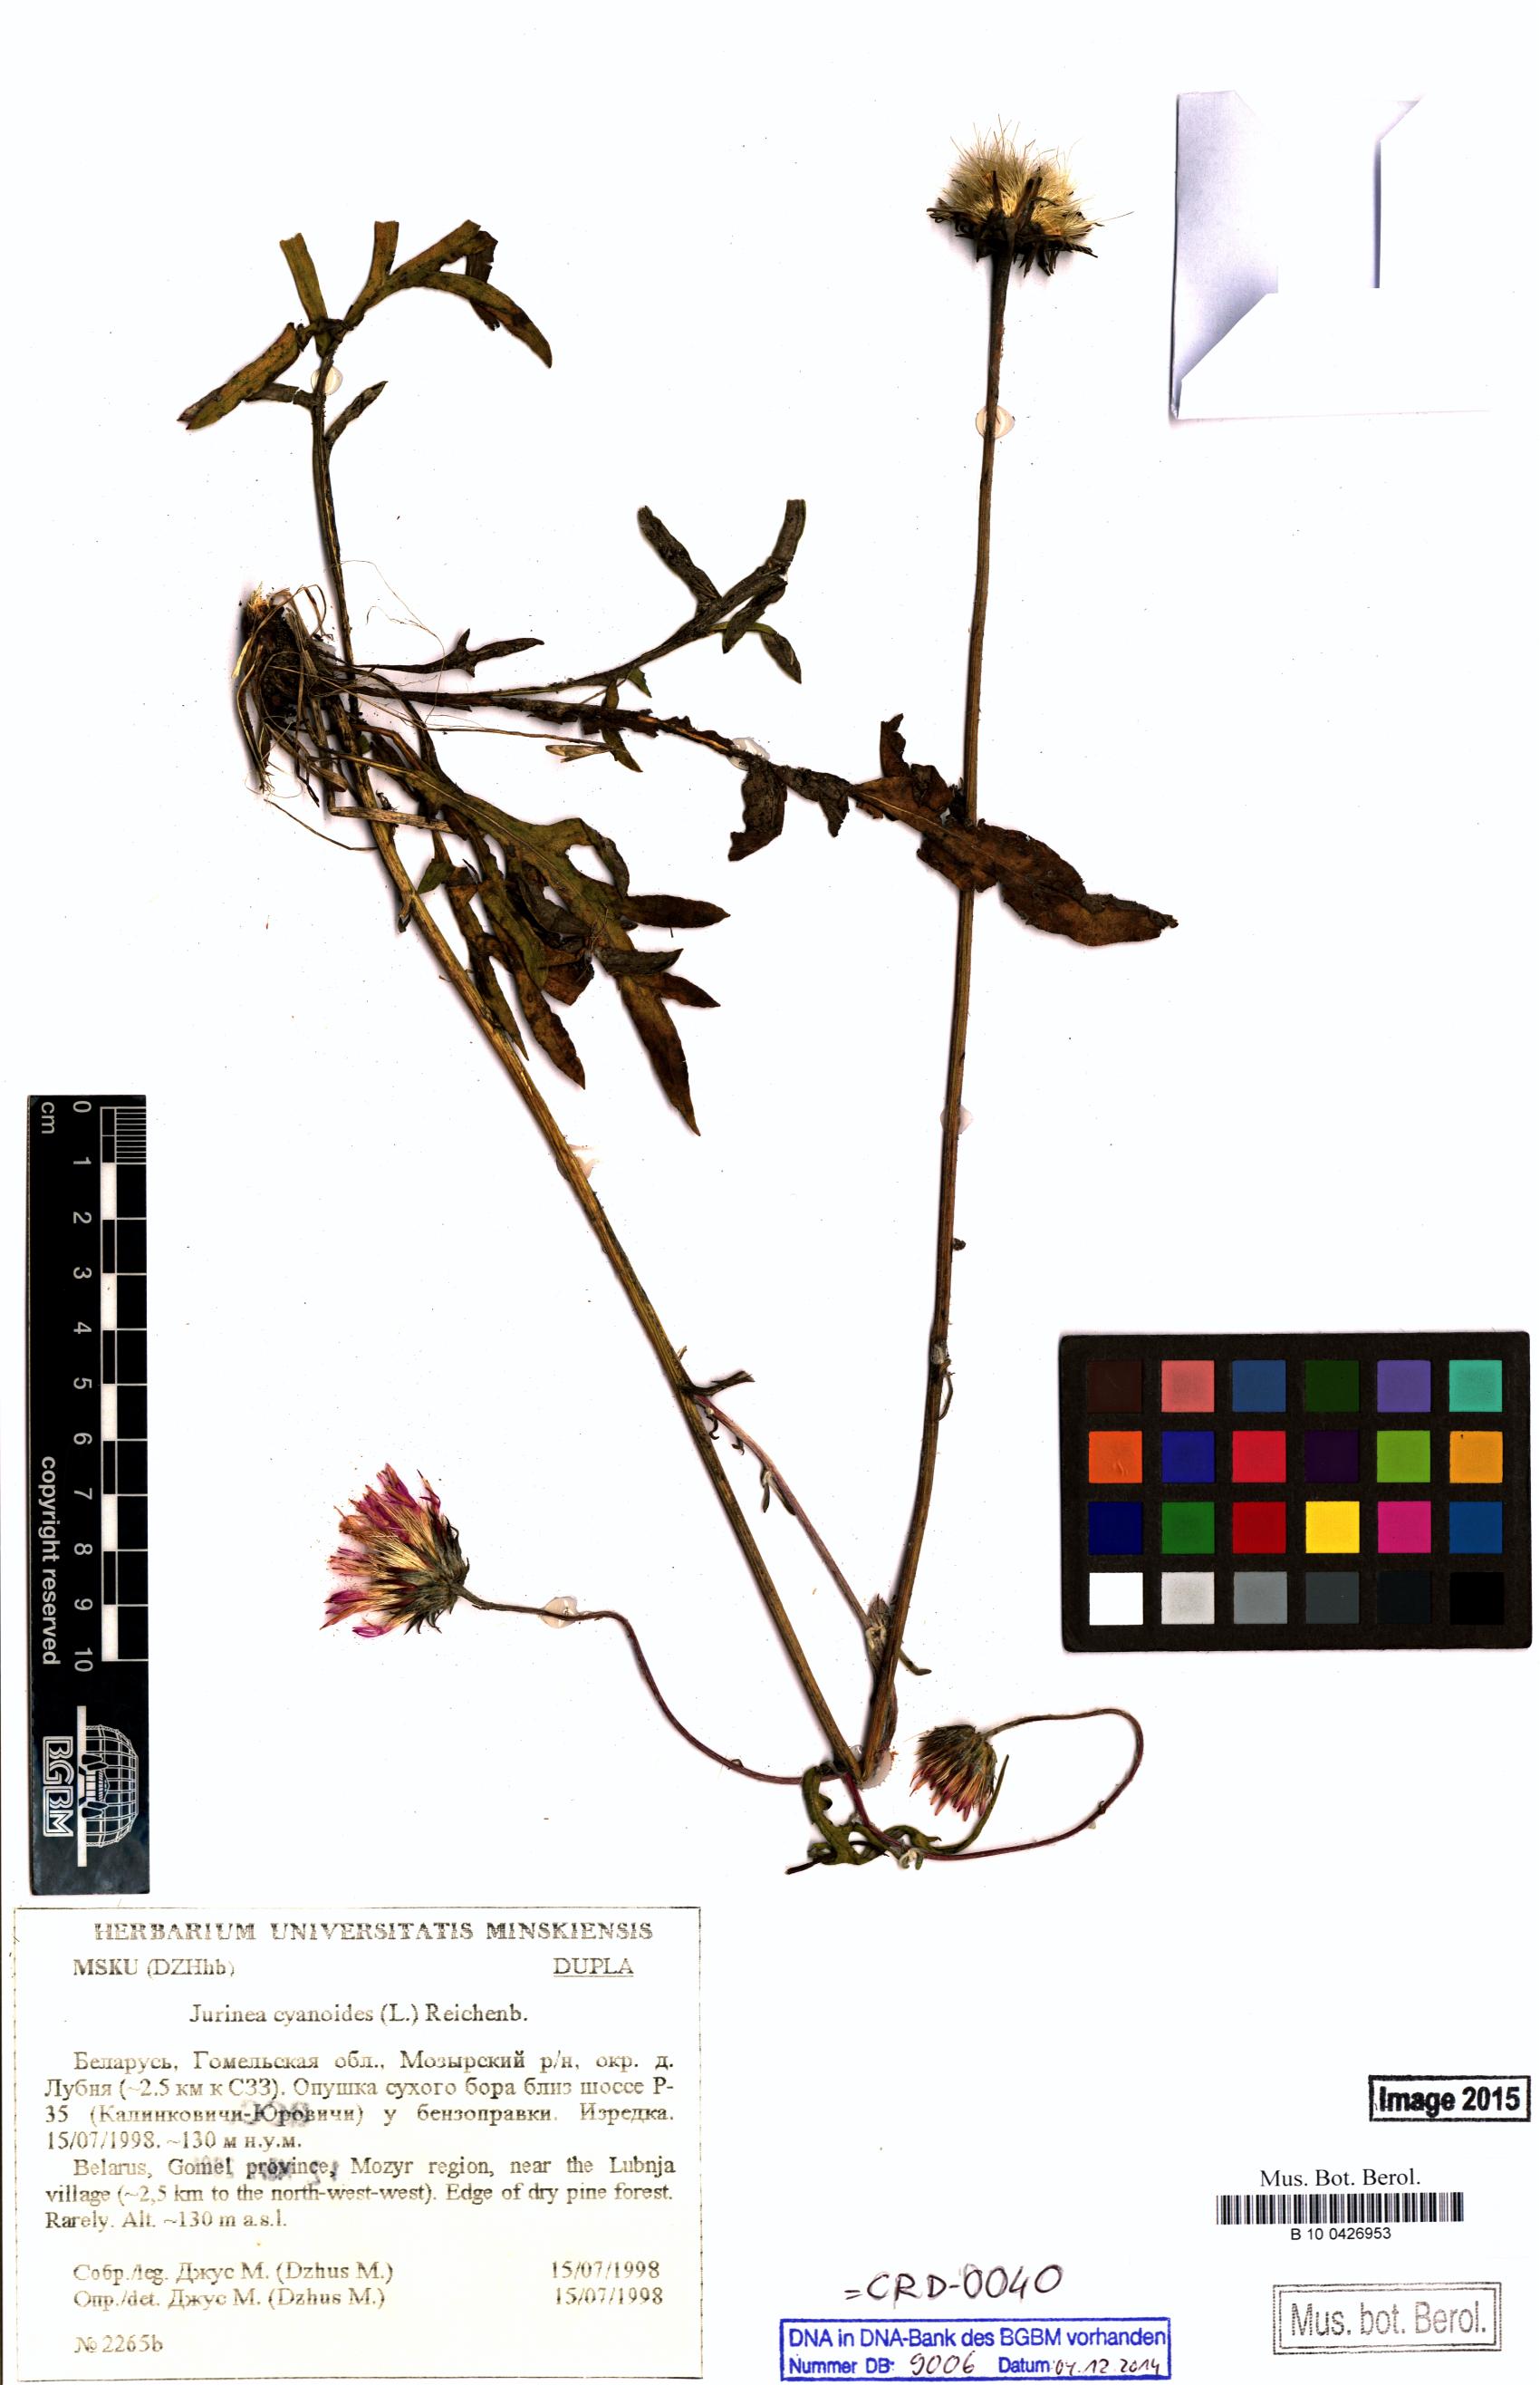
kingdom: Plantae
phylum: Tracheophyta
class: Magnoliopsida
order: Asterales
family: Asteraceae
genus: Jurinea
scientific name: Jurinea cyanoides
